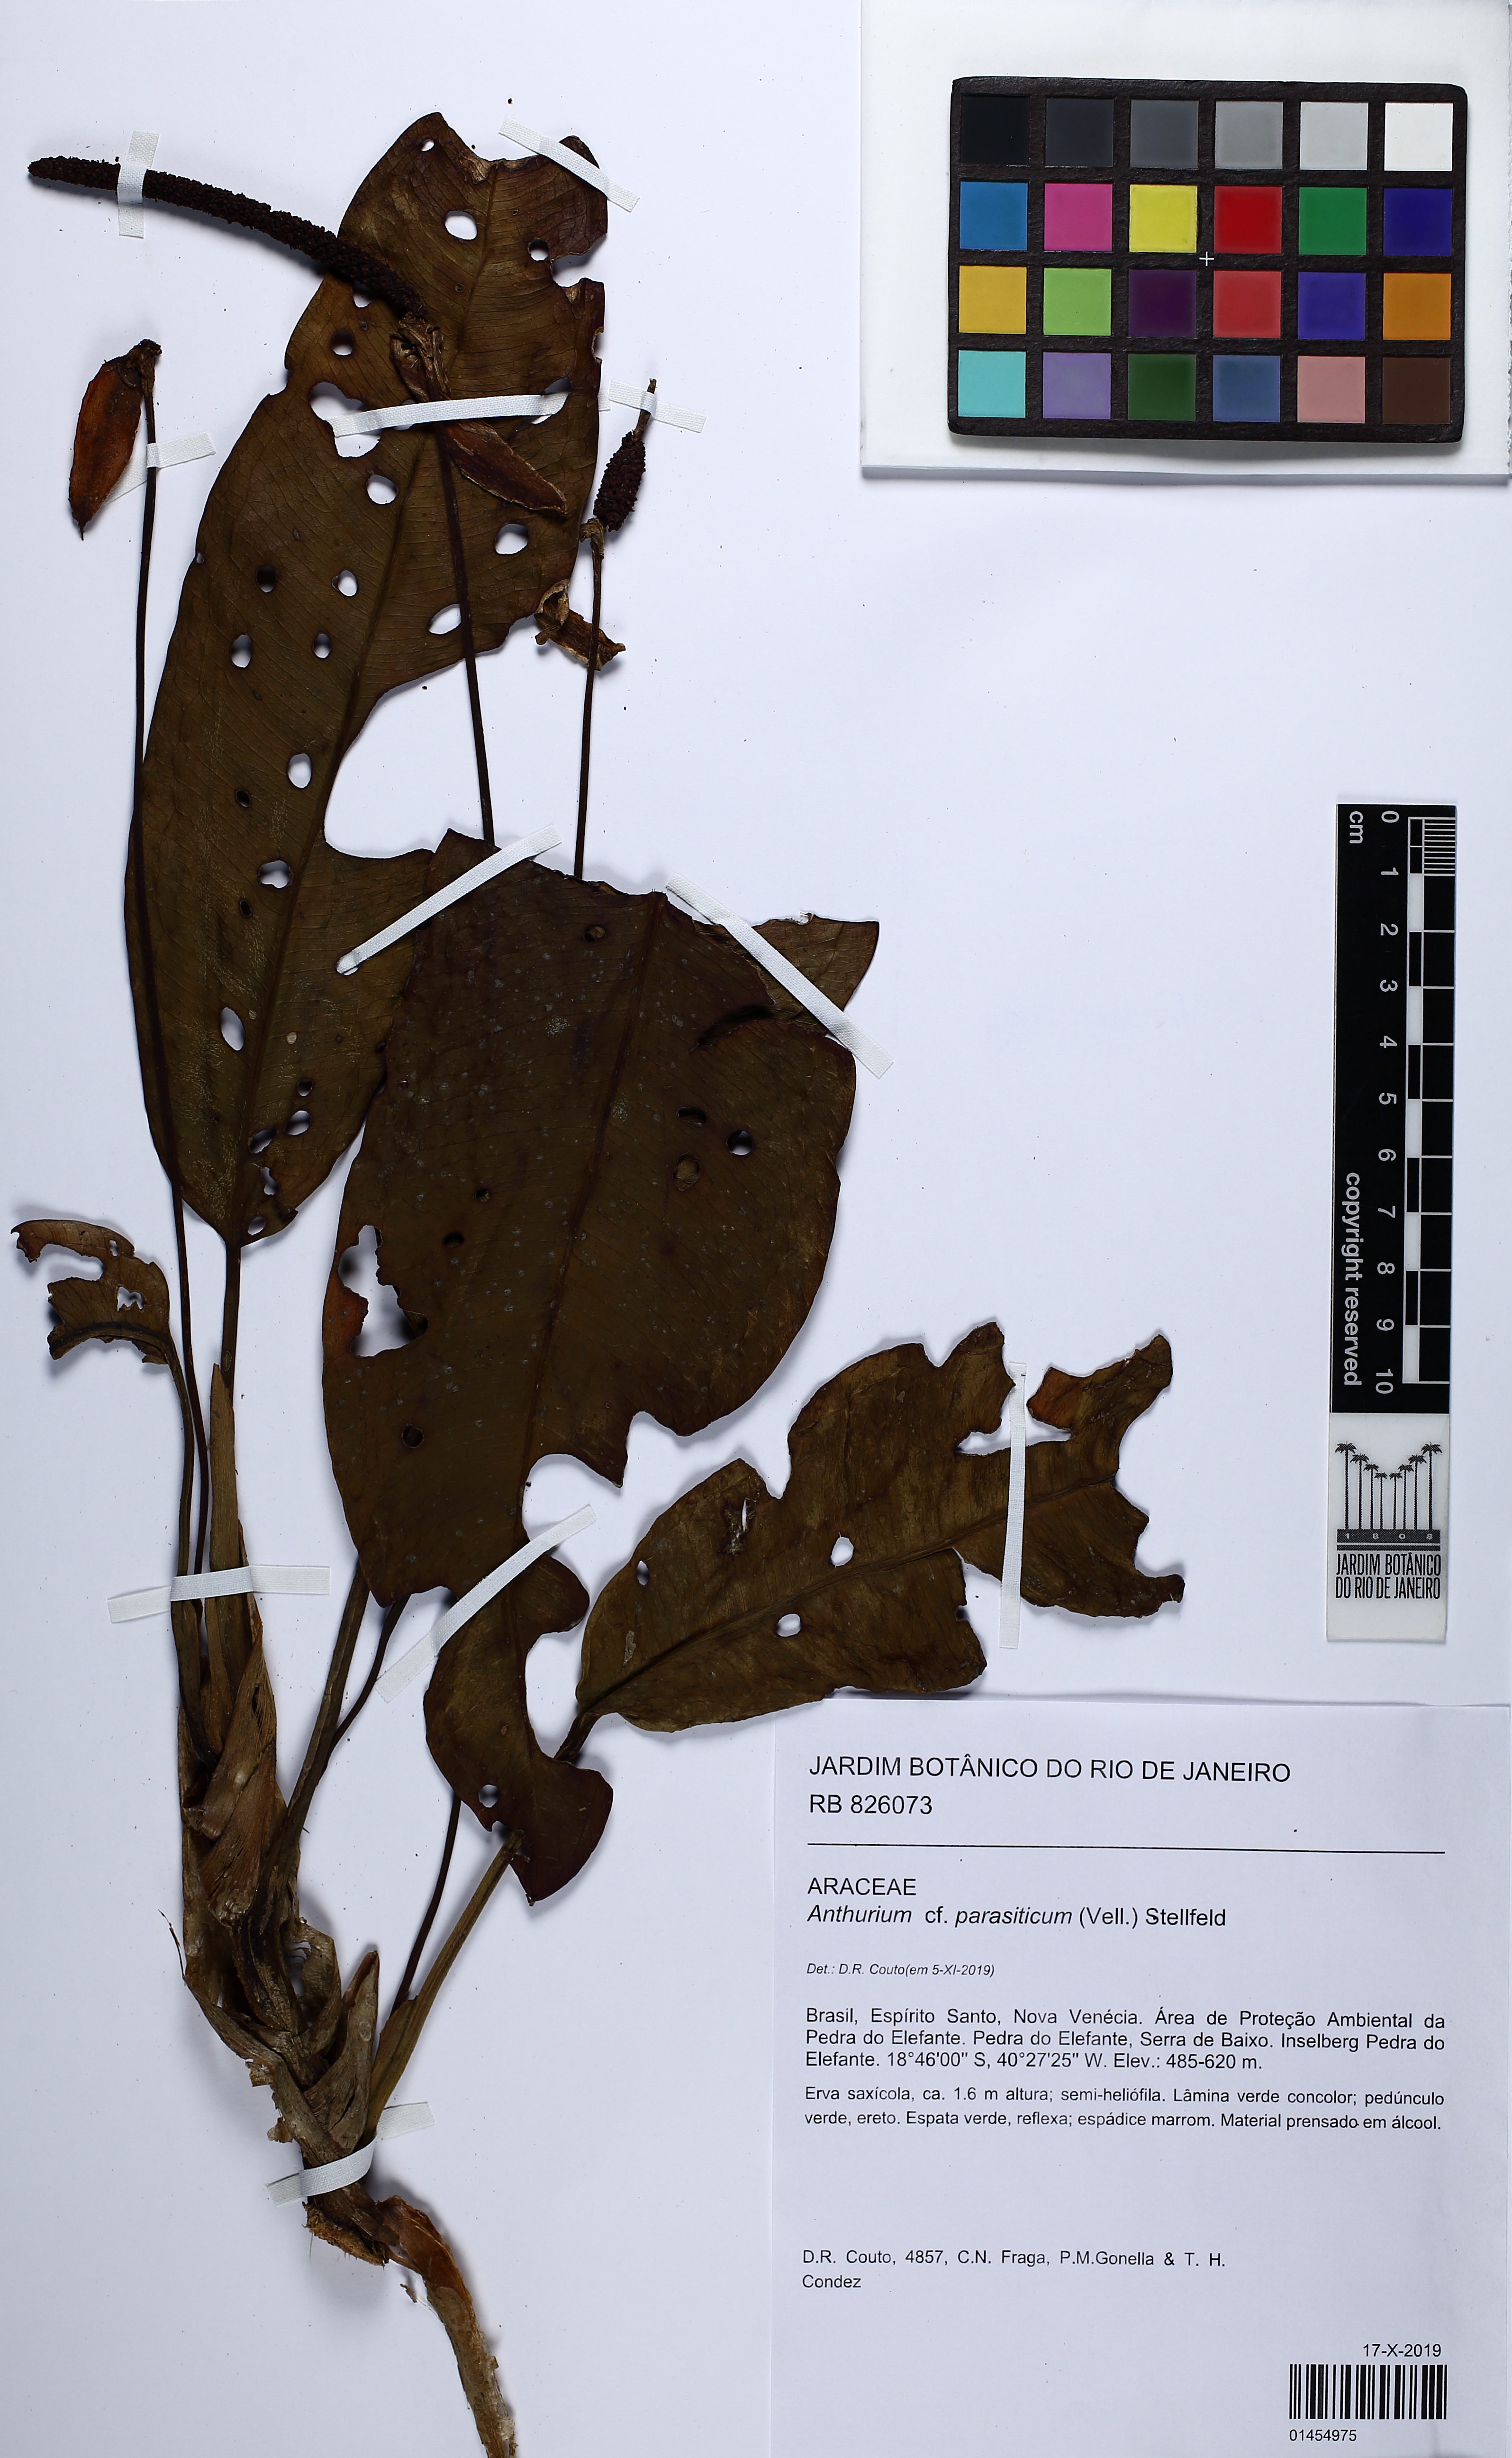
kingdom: Plantae
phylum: Tracheophyta
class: Liliopsida
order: Alismatales
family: Araceae
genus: Anthurium
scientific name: Anthurium parasiticum
